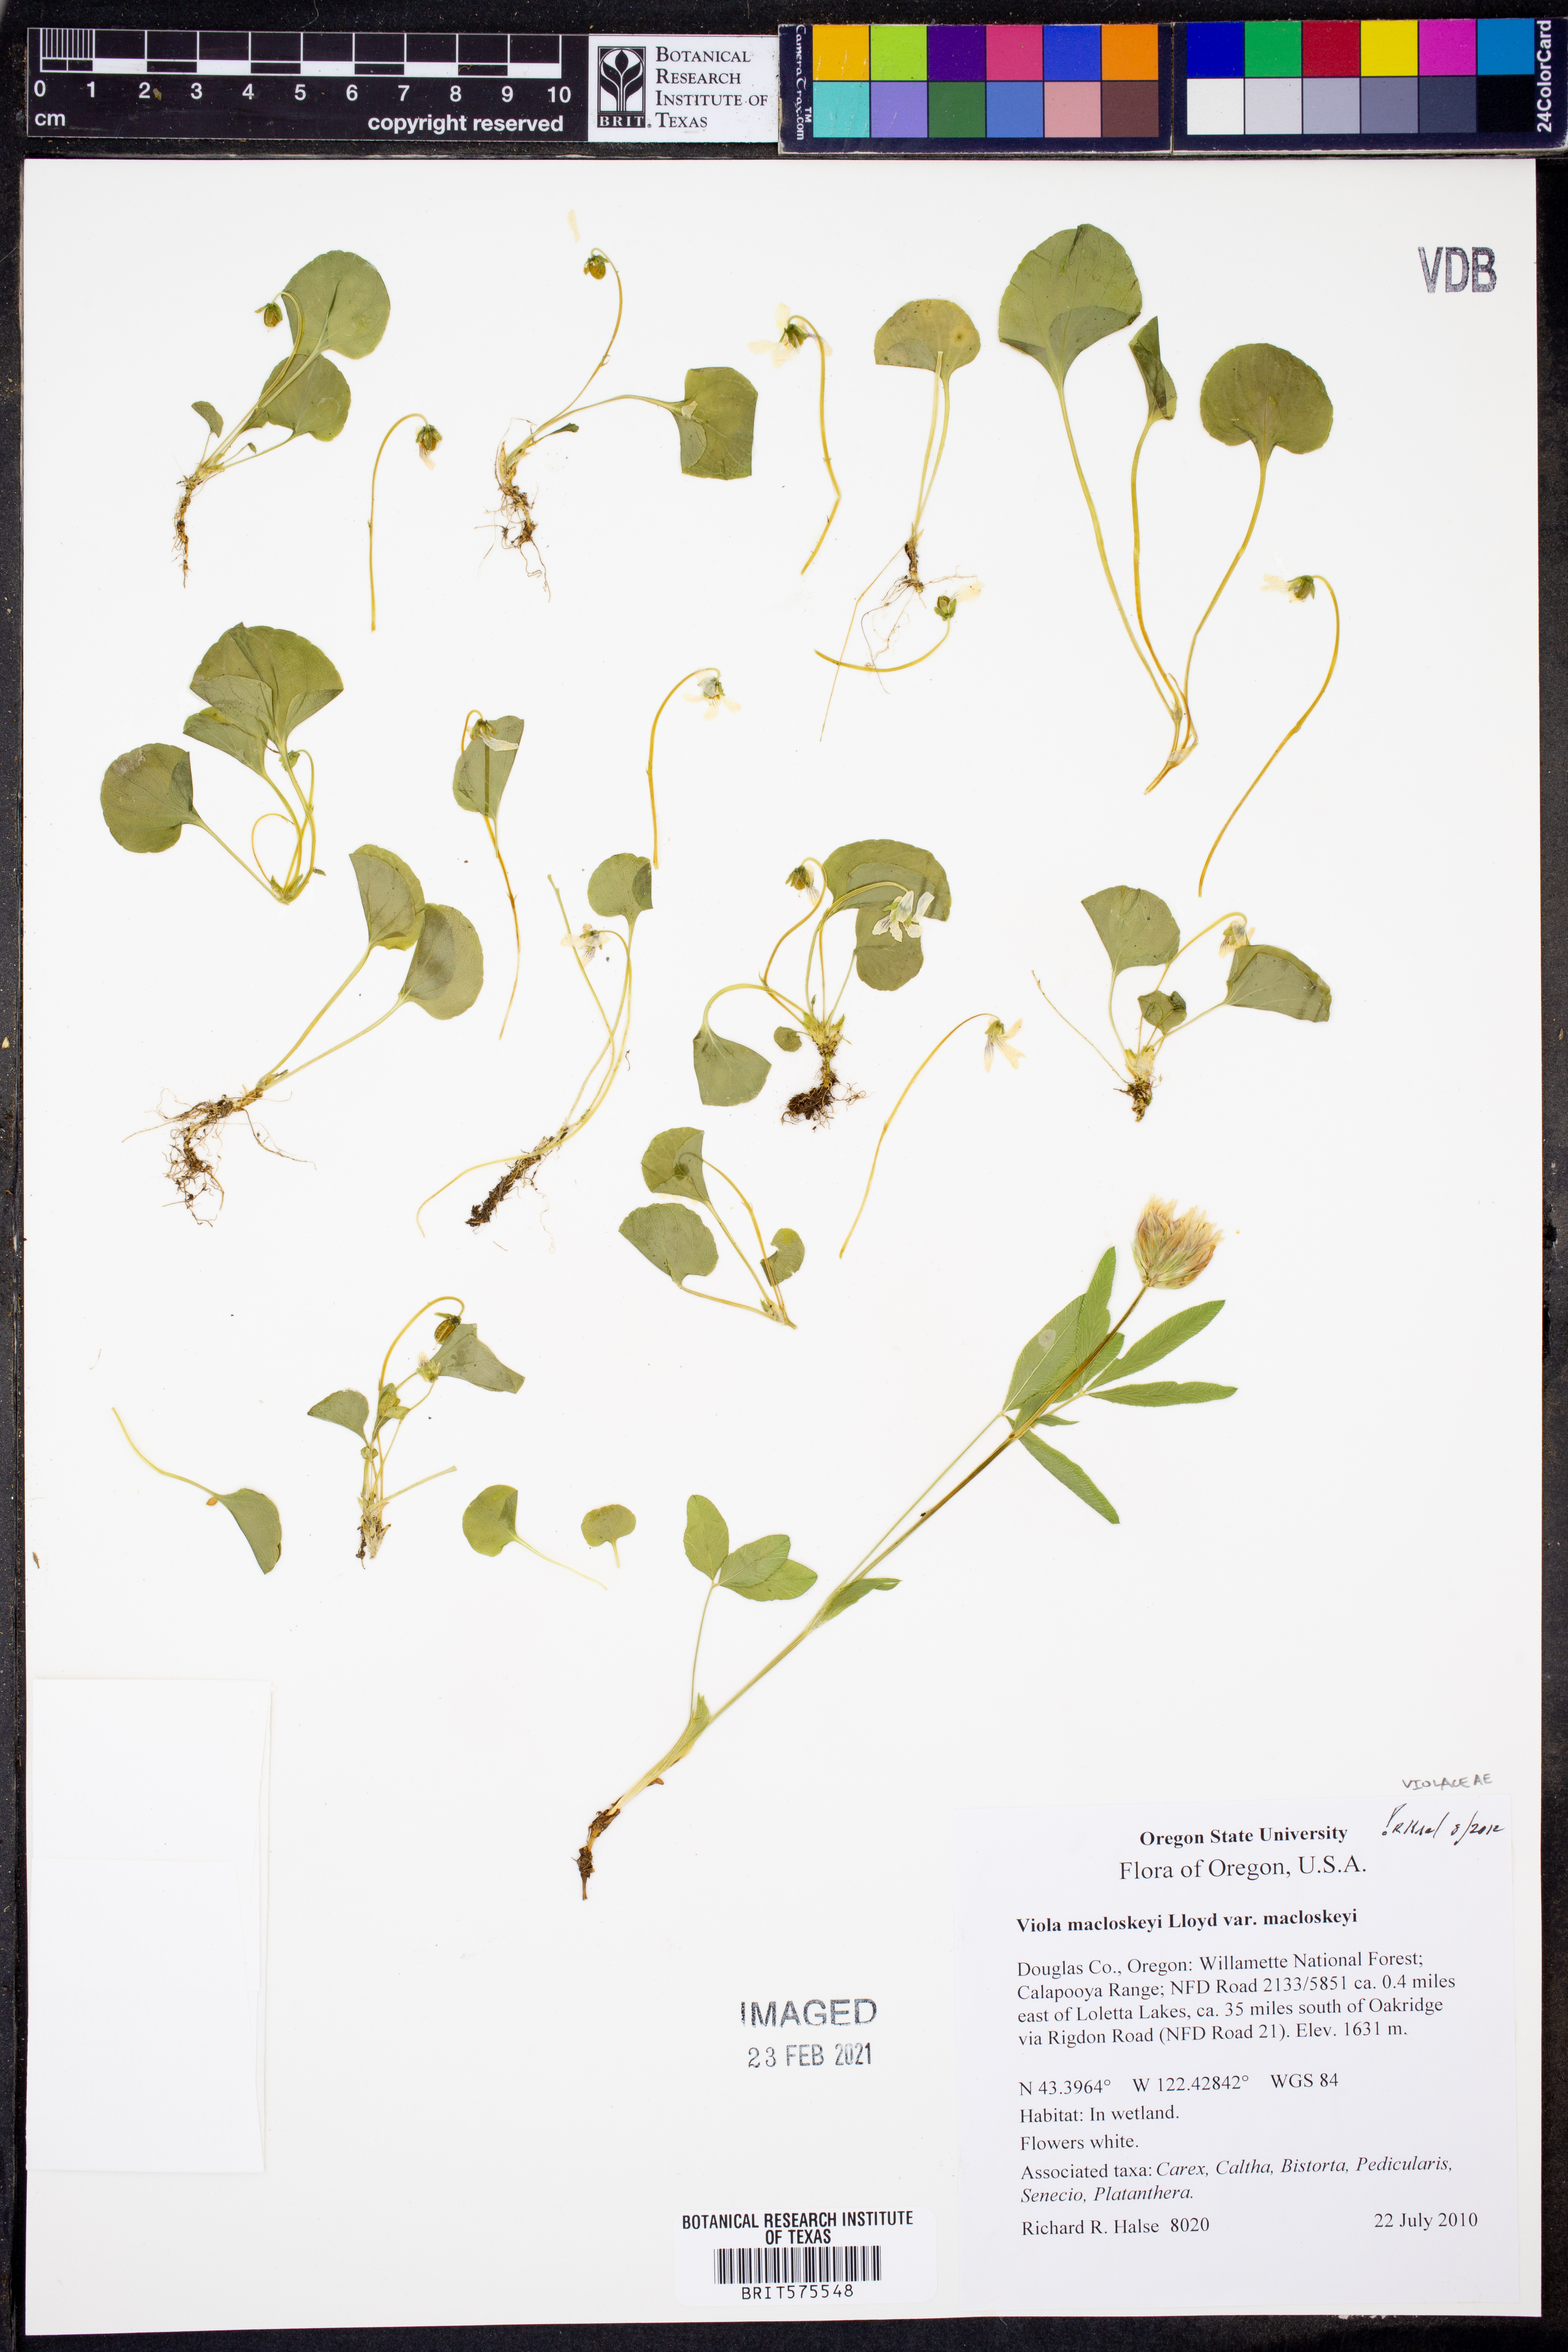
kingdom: Plantae
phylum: Tracheophyta
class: Magnoliopsida
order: Malpighiales
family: Violaceae
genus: Viola
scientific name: Viola macloskeyi
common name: Macloskey's violet
